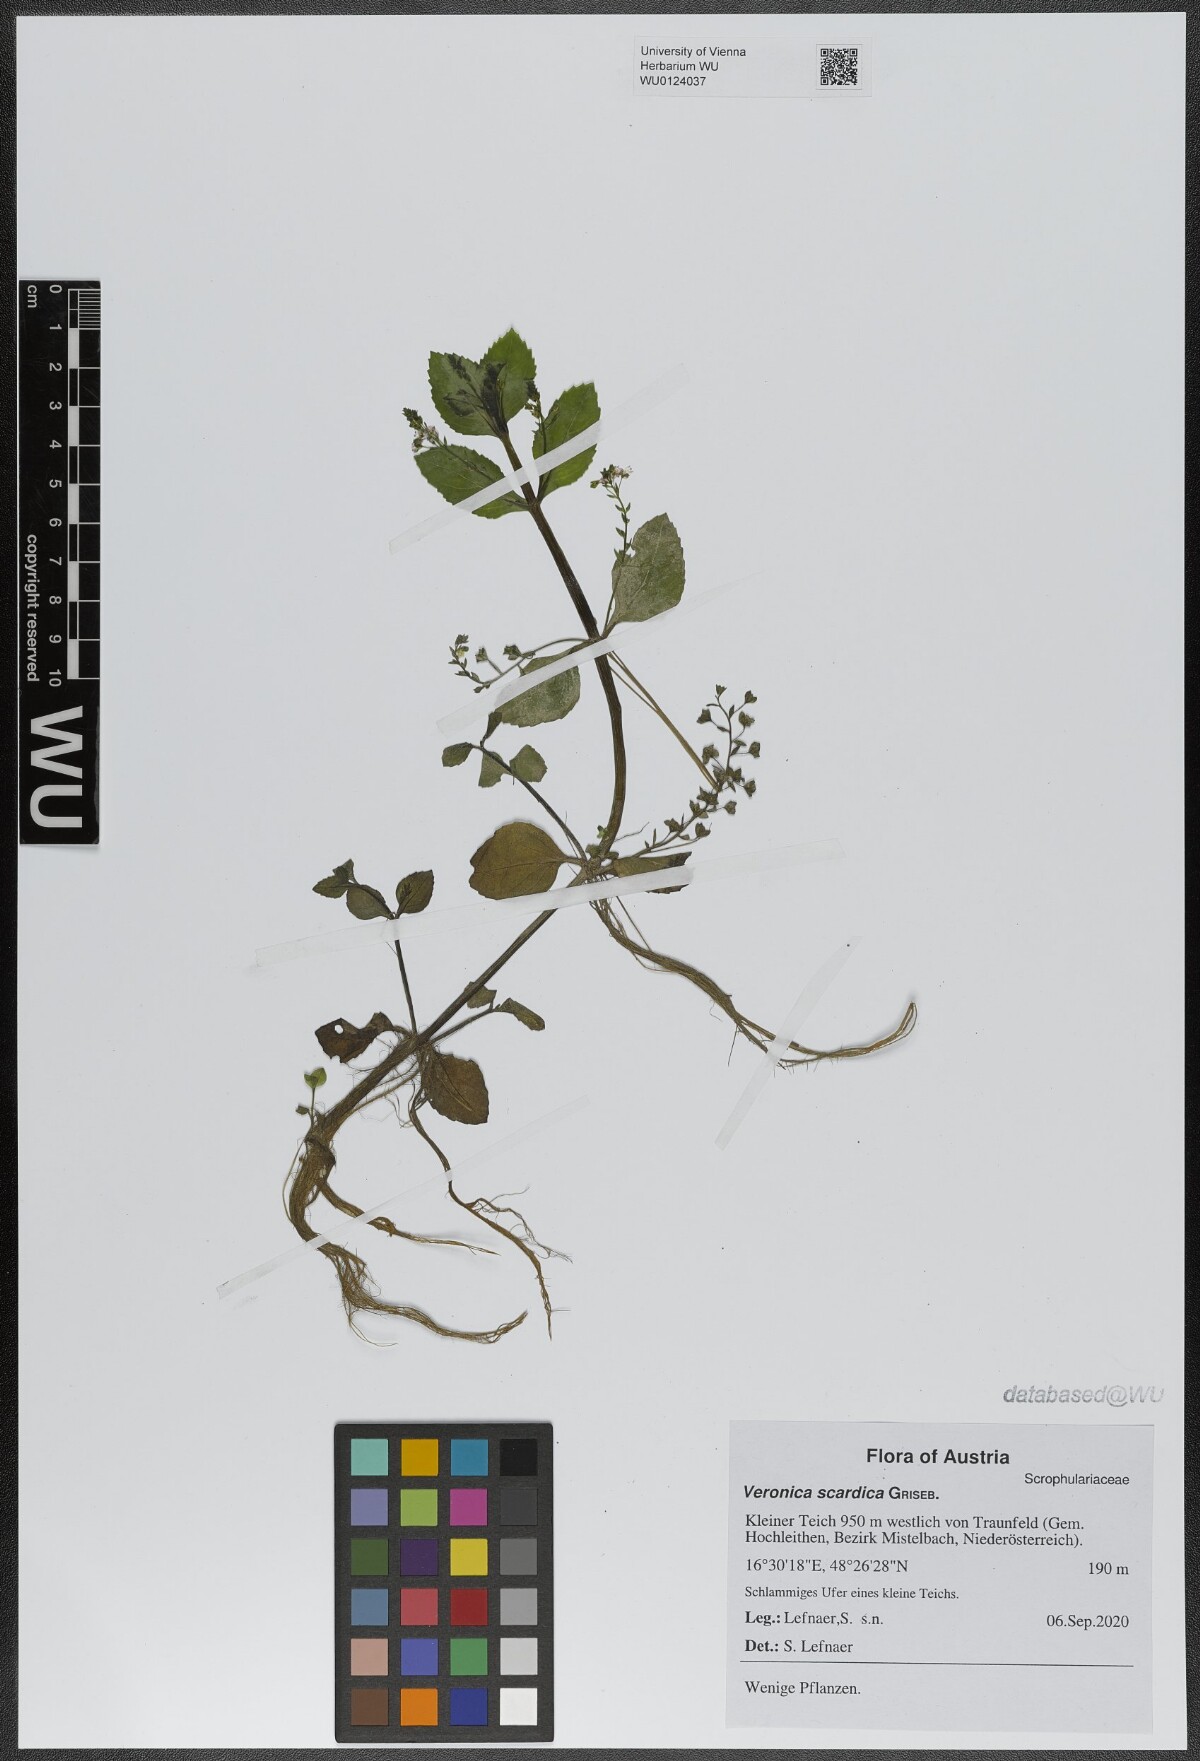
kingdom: Plantae
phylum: Tracheophyta
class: Magnoliopsida
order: Lamiales
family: Plantaginaceae
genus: Veronica
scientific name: Veronica scardica
